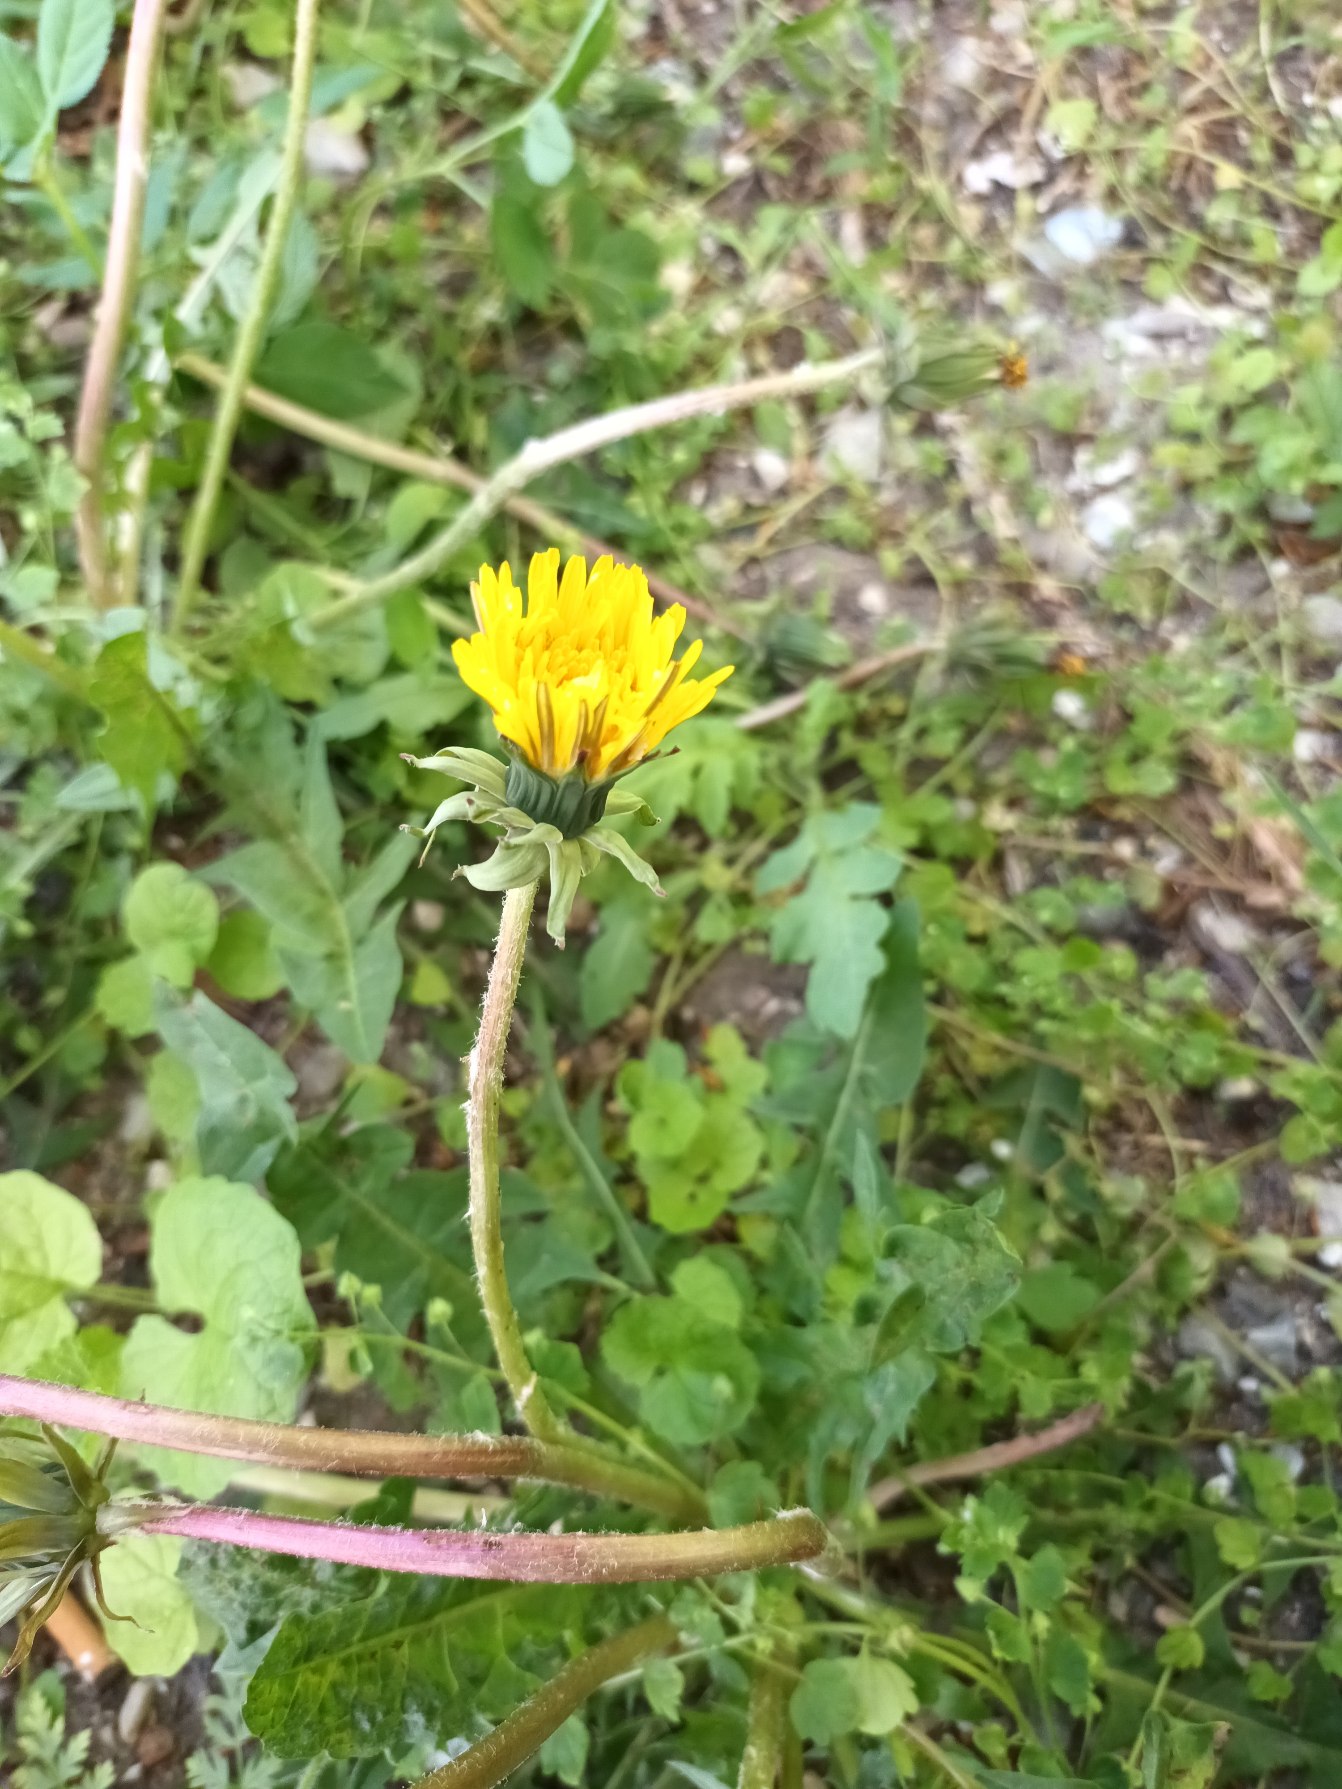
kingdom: Plantae
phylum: Tracheophyta
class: Magnoliopsida
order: Asterales
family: Asteraceae
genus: Taraxacum
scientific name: Taraxacum
